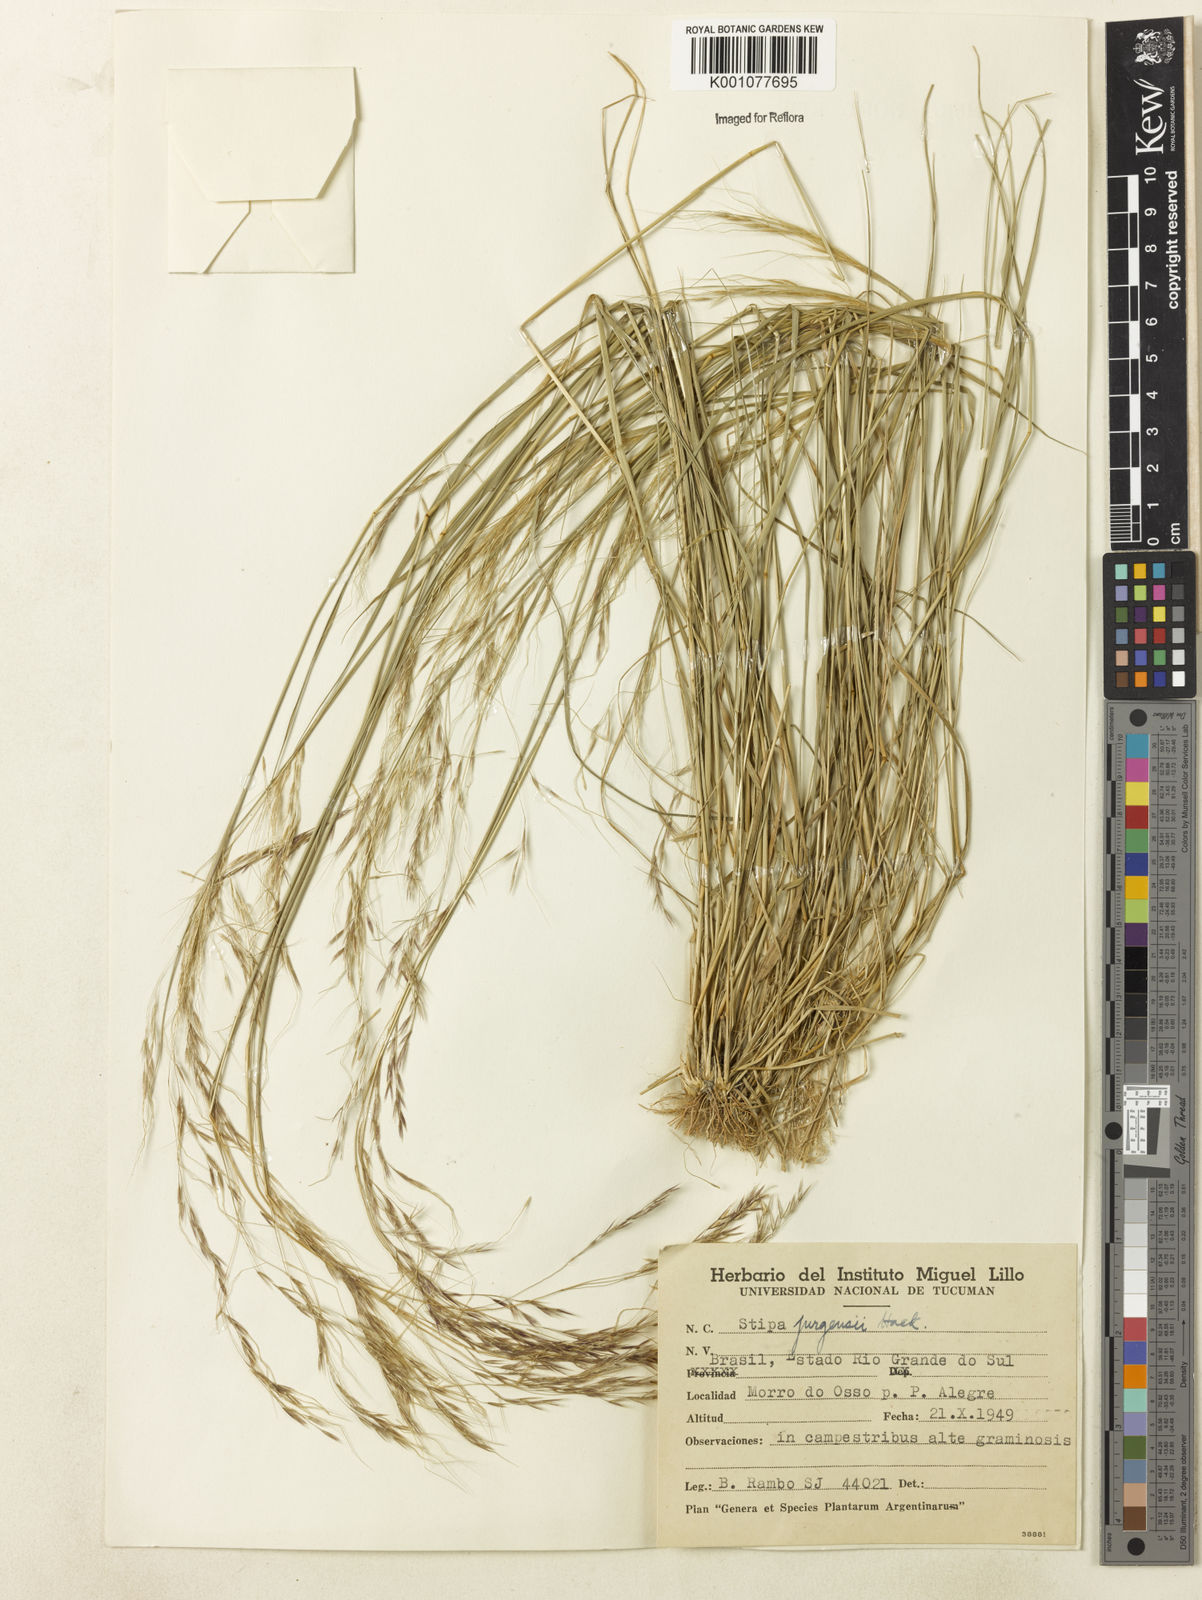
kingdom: Plantae
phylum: Tracheophyta
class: Liliopsida
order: Poales
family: Poaceae
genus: Nassella
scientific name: Nassella juergensii
